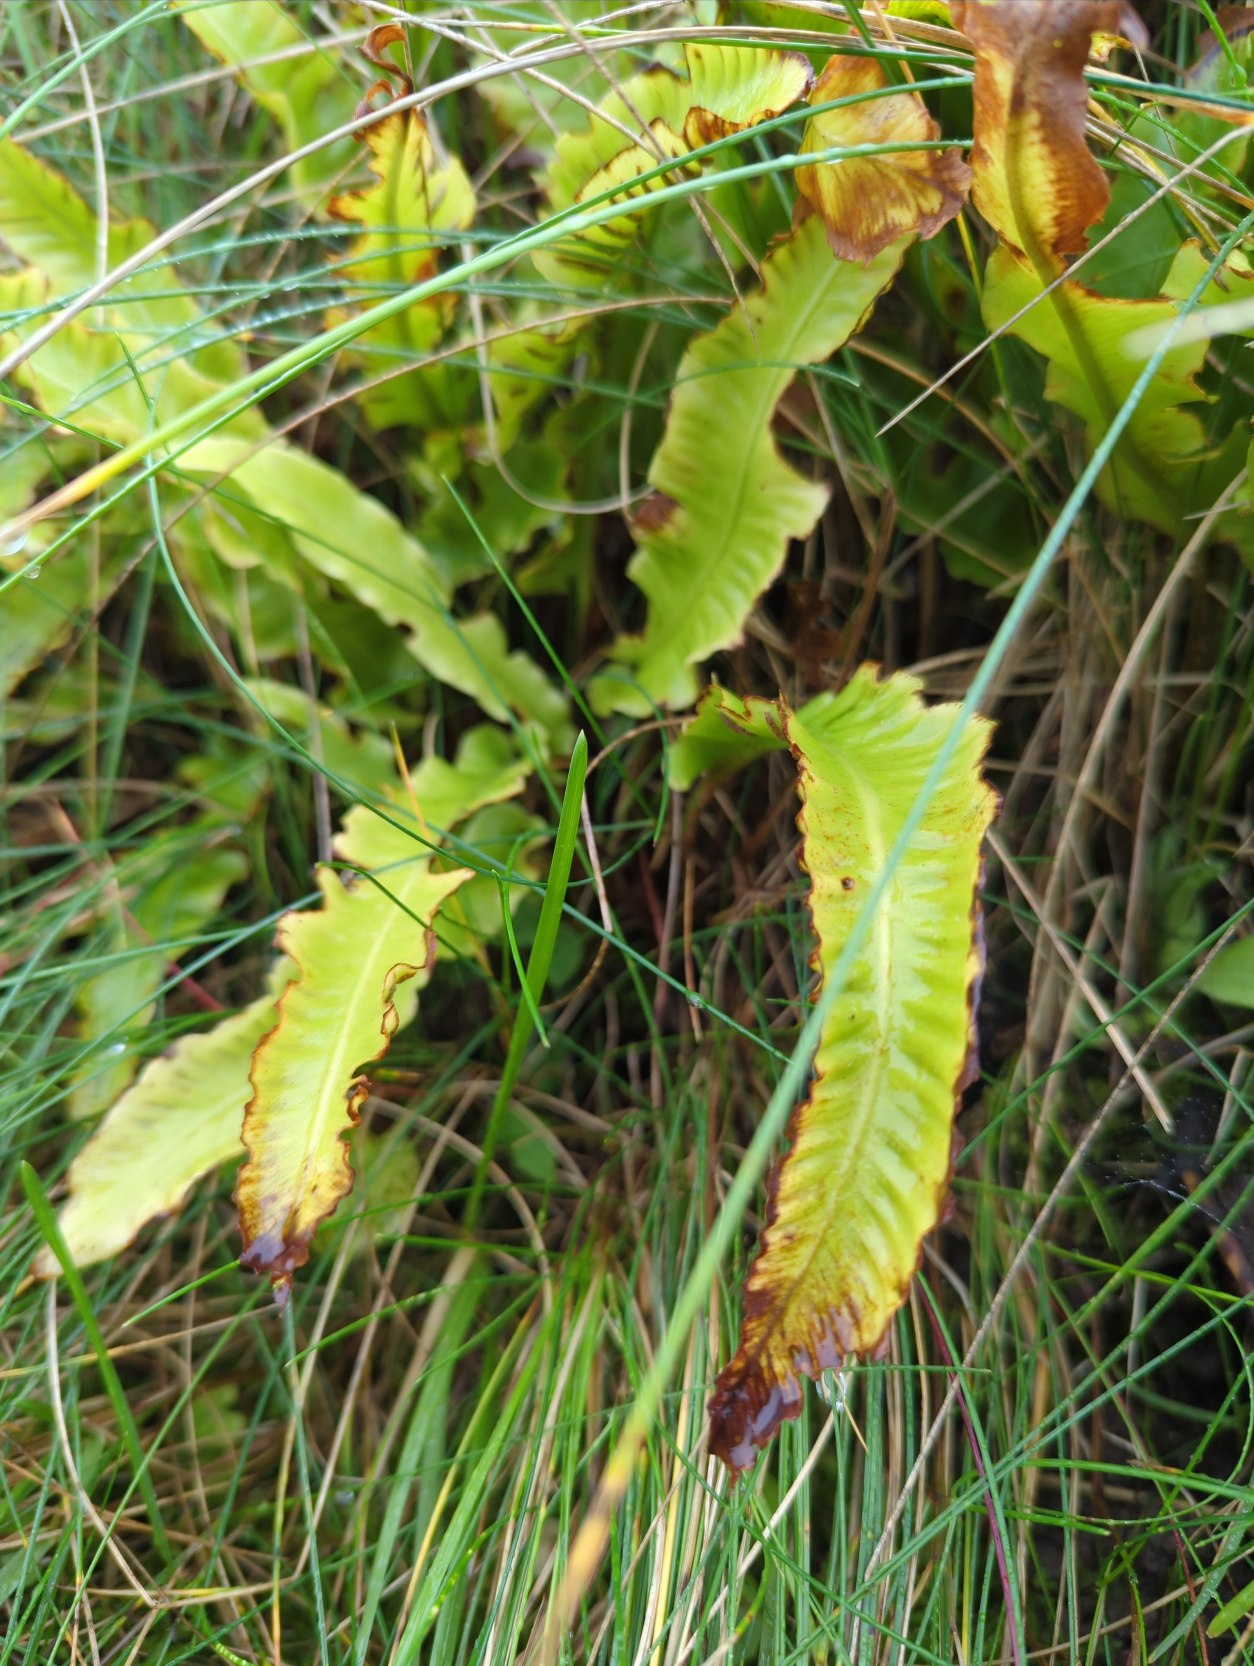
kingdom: Plantae
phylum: Tracheophyta
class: Polypodiopsida
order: Polypodiales
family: Aspleniaceae
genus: Asplenium
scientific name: Asplenium scolopendrium
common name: Hjortetunge
